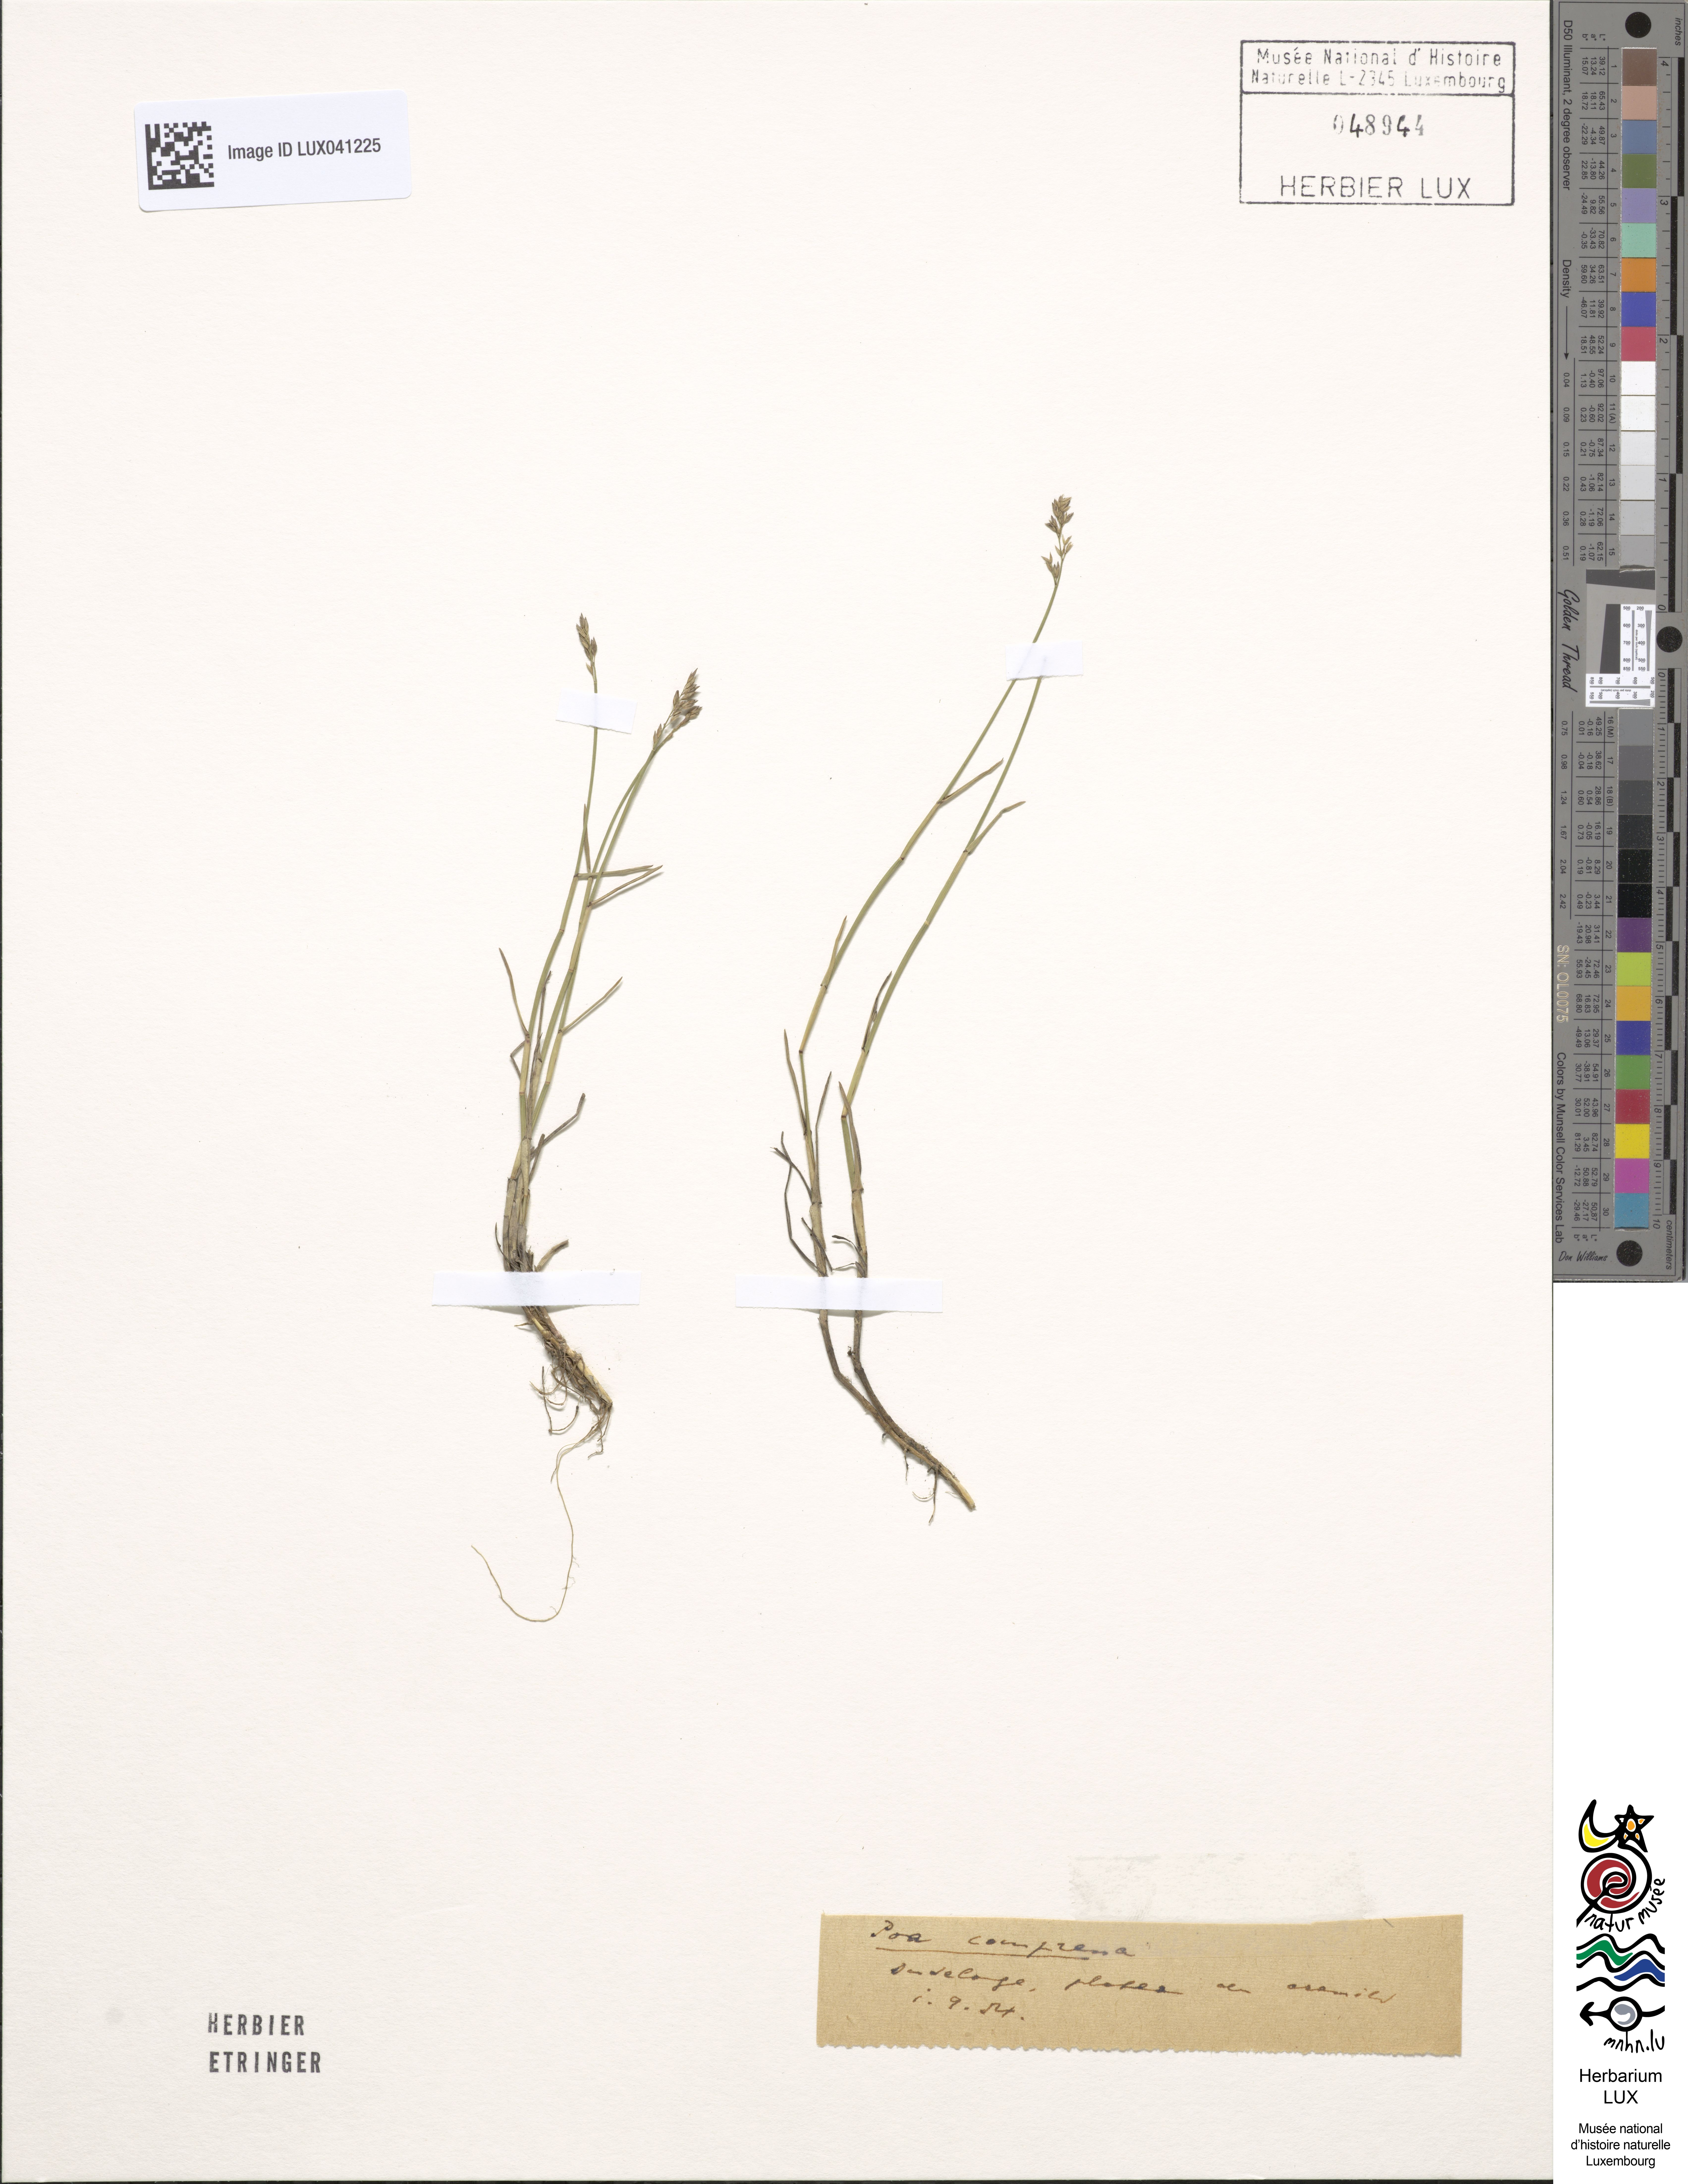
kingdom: Plantae
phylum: Tracheophyta
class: Liliopsida
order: Poales
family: Poaceae
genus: Poa
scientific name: Poa compressa
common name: Canada bluegrass
